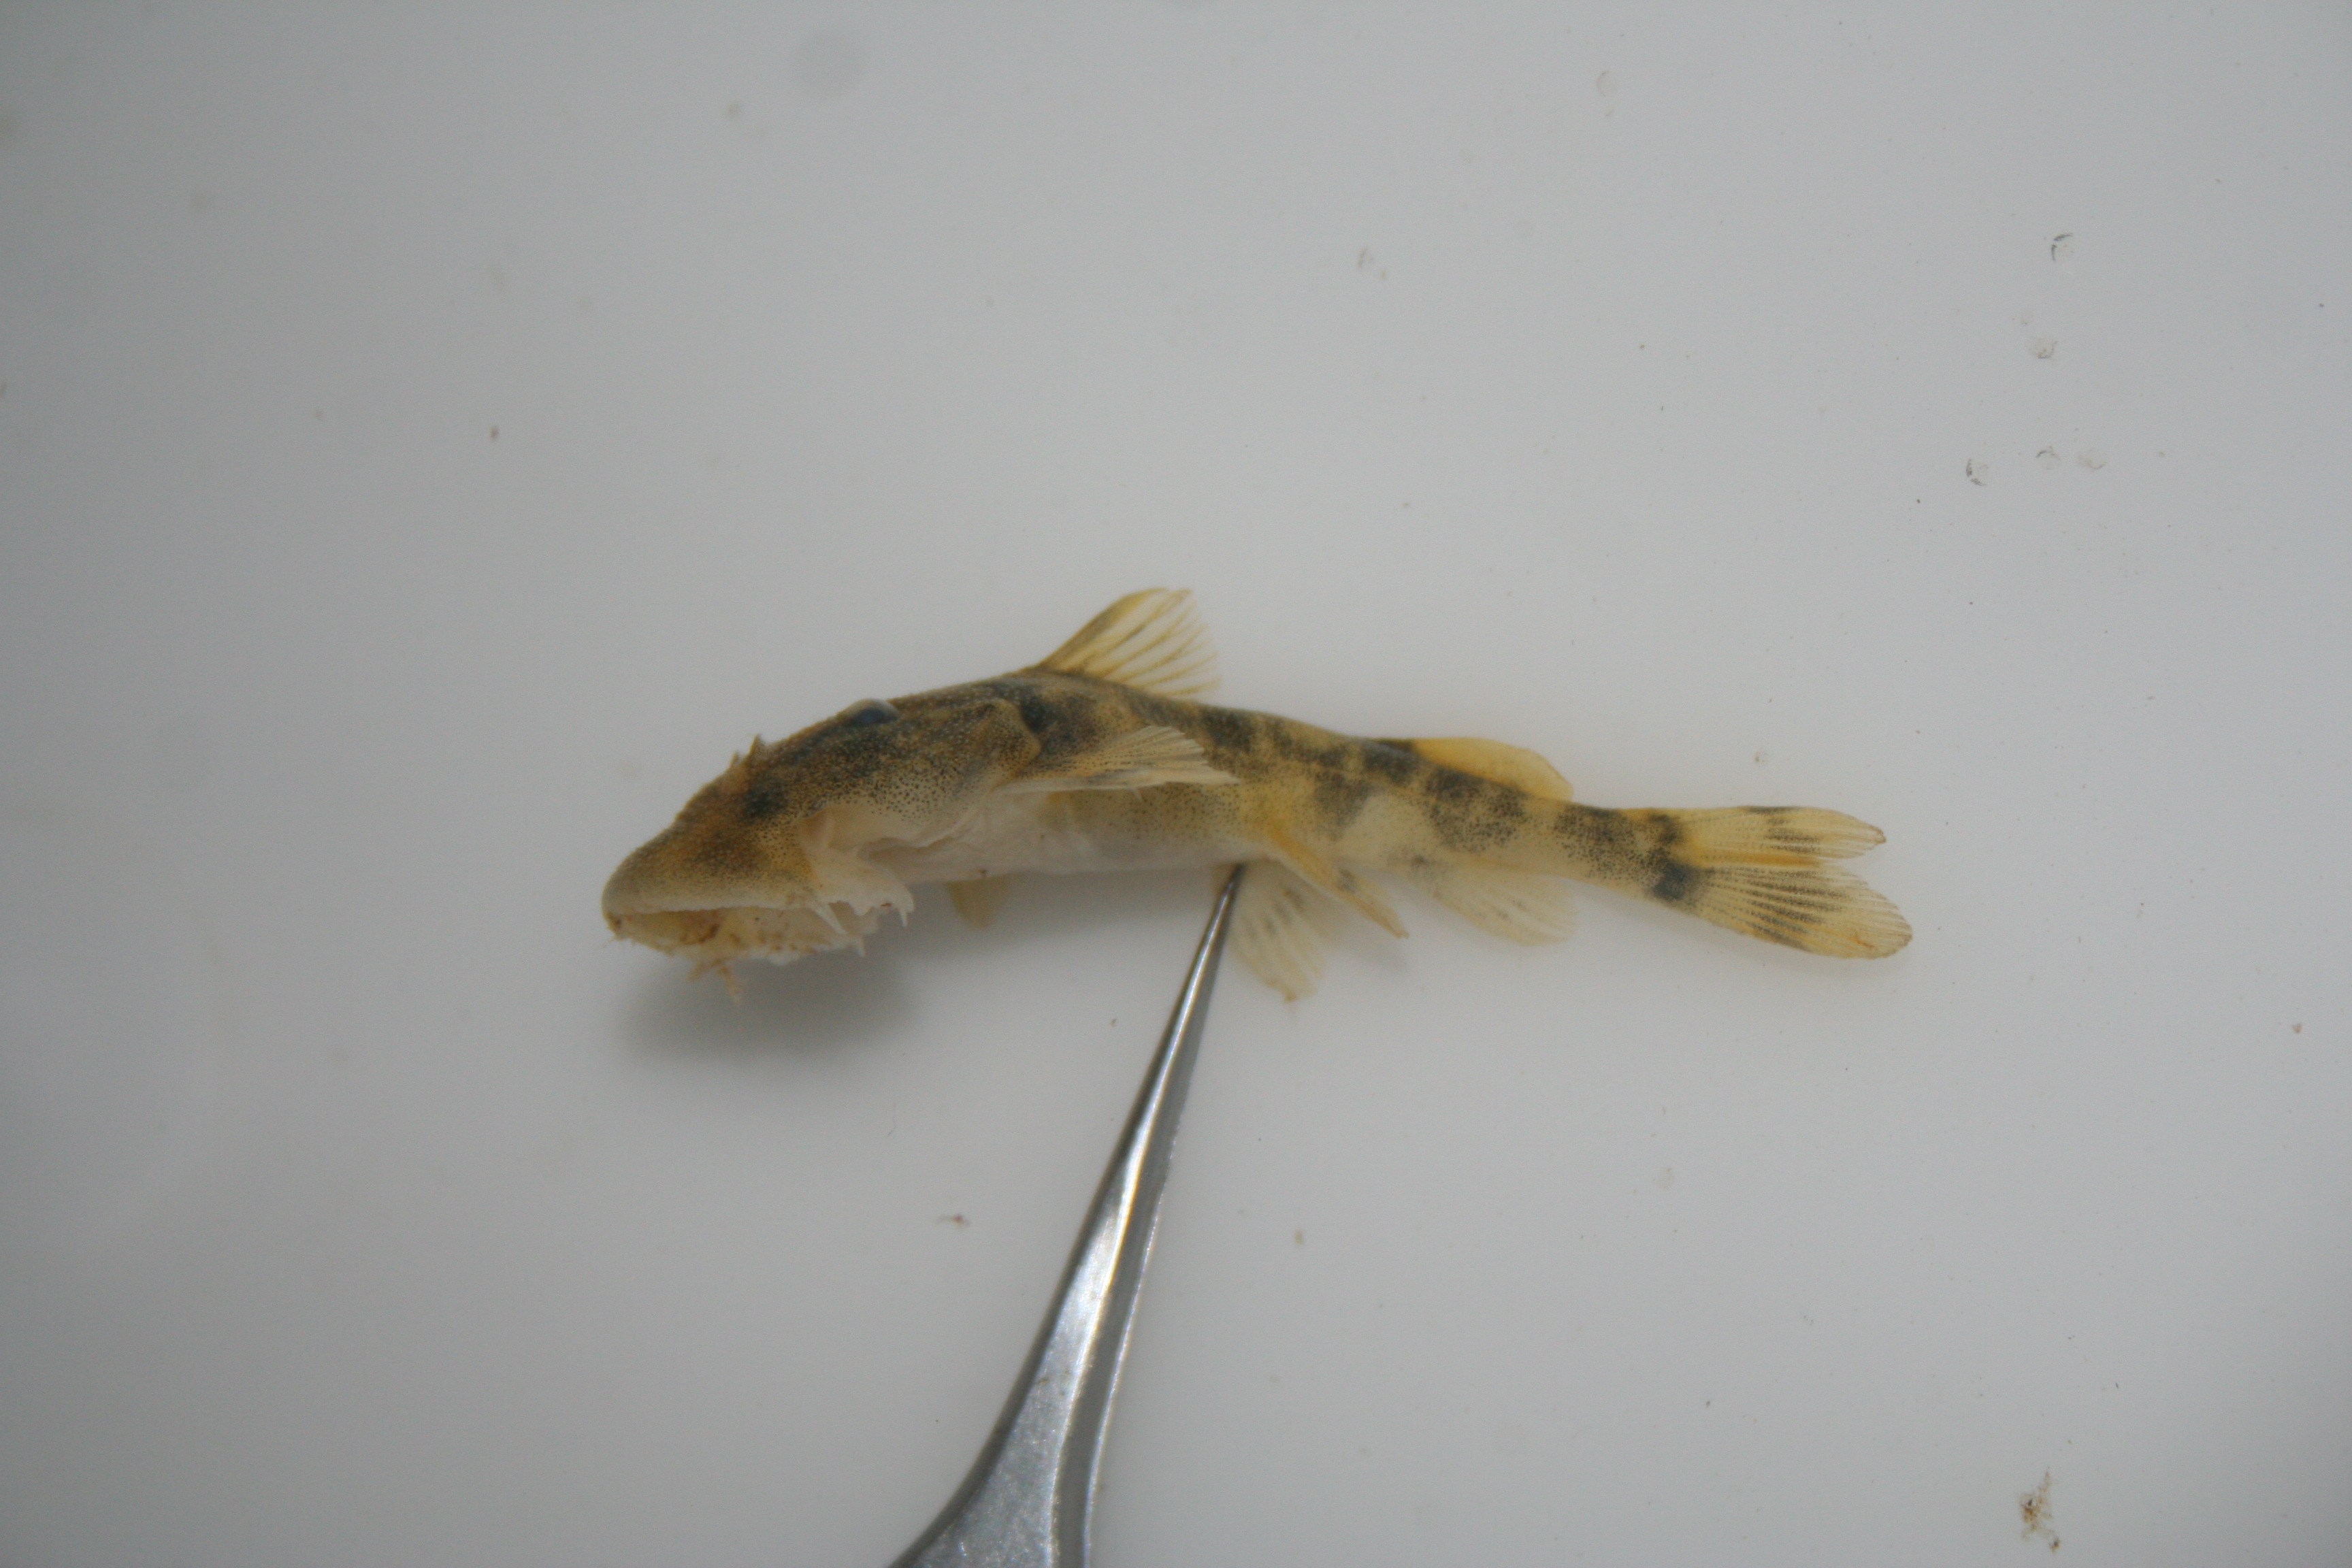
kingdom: Animalia
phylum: Chordata
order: Siluriformes
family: Mochokidae
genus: Chiloglanis
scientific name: Chiloglanis
